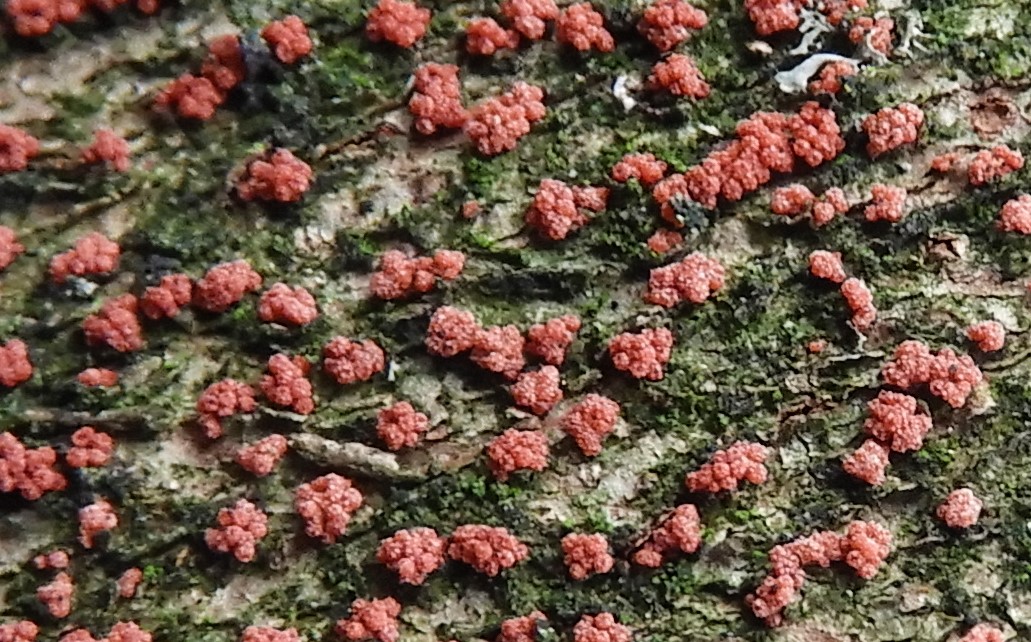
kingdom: Fungi
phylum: Ascomycota
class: Sordariomycetes
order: Hypocreales
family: Nectriaceae
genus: Nectria
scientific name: Nectria cinnabarina
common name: almindelig cinnobersvamp
